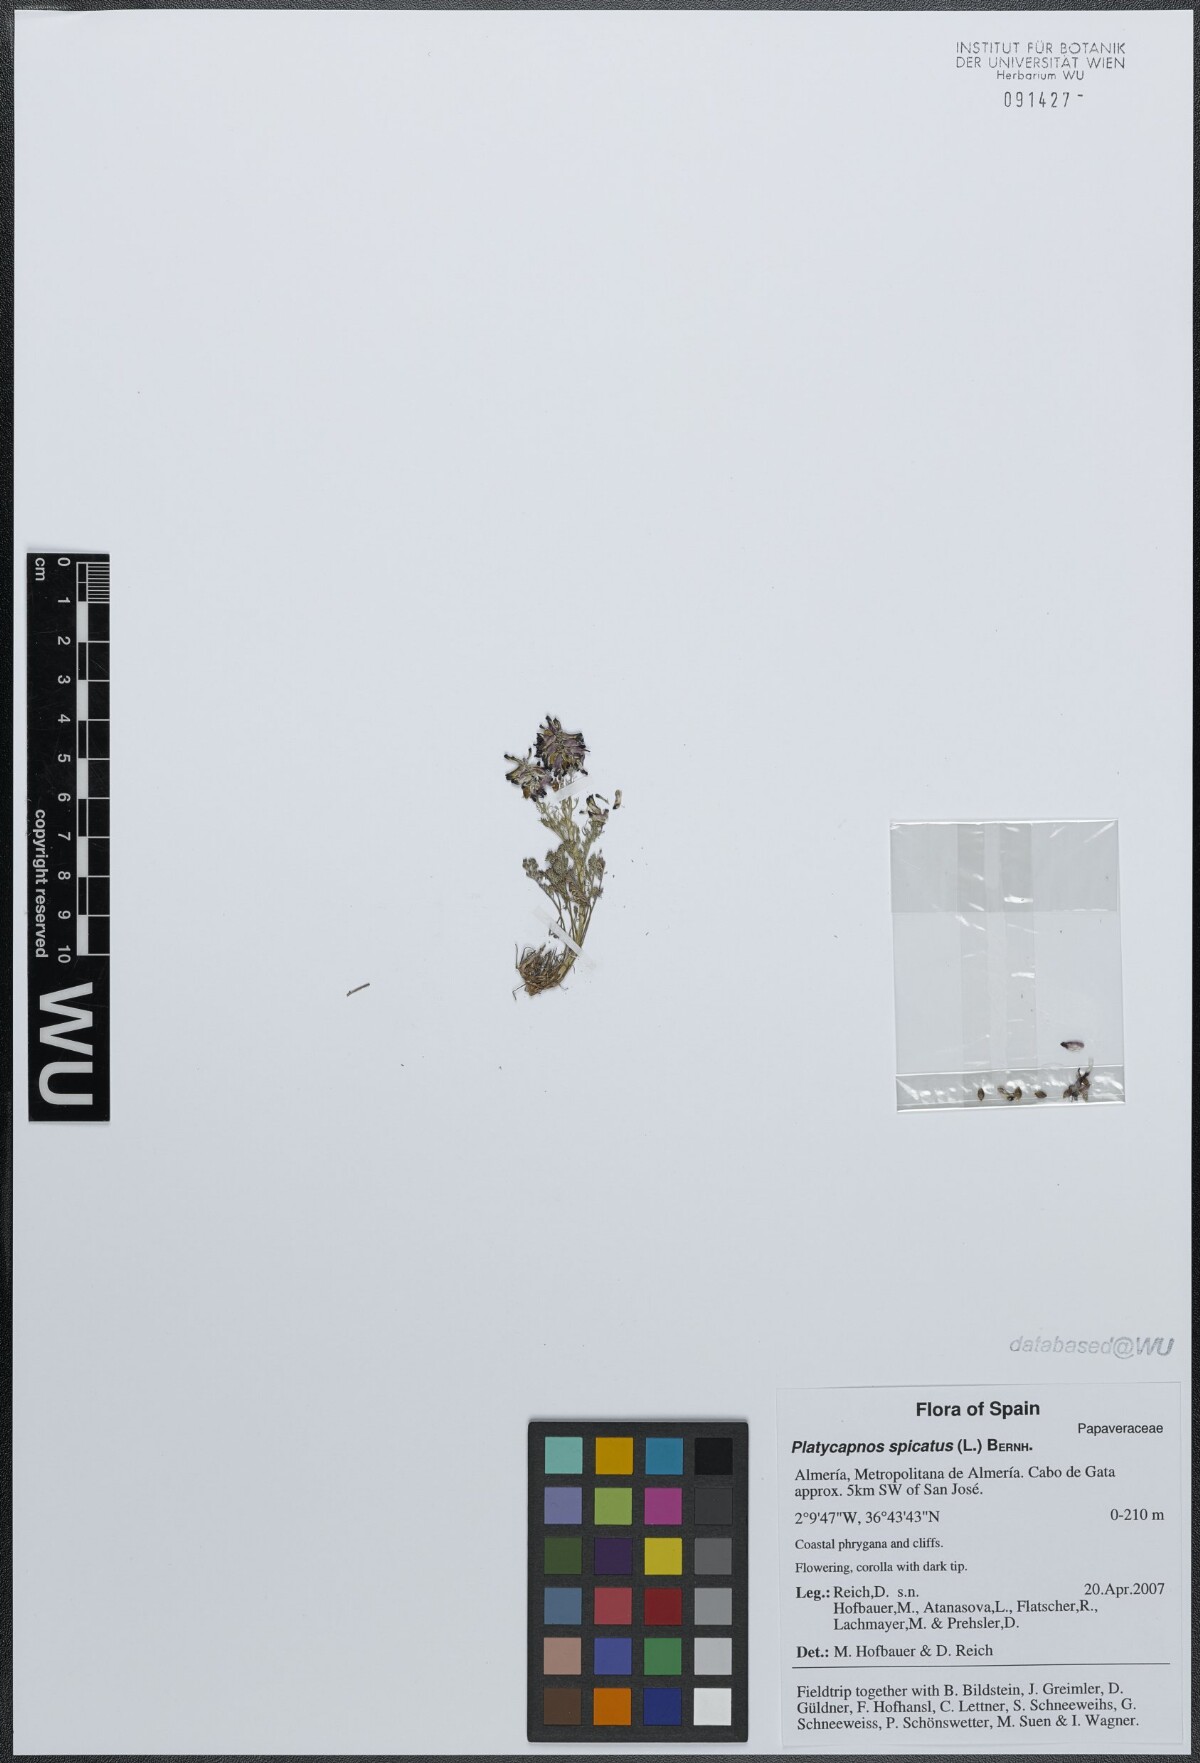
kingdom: Plantae
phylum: Tracheophyta
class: Magnoliopsida
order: Ranunculales
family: Papaveraceae
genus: Platycapnos
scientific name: Platycapnos spicata
